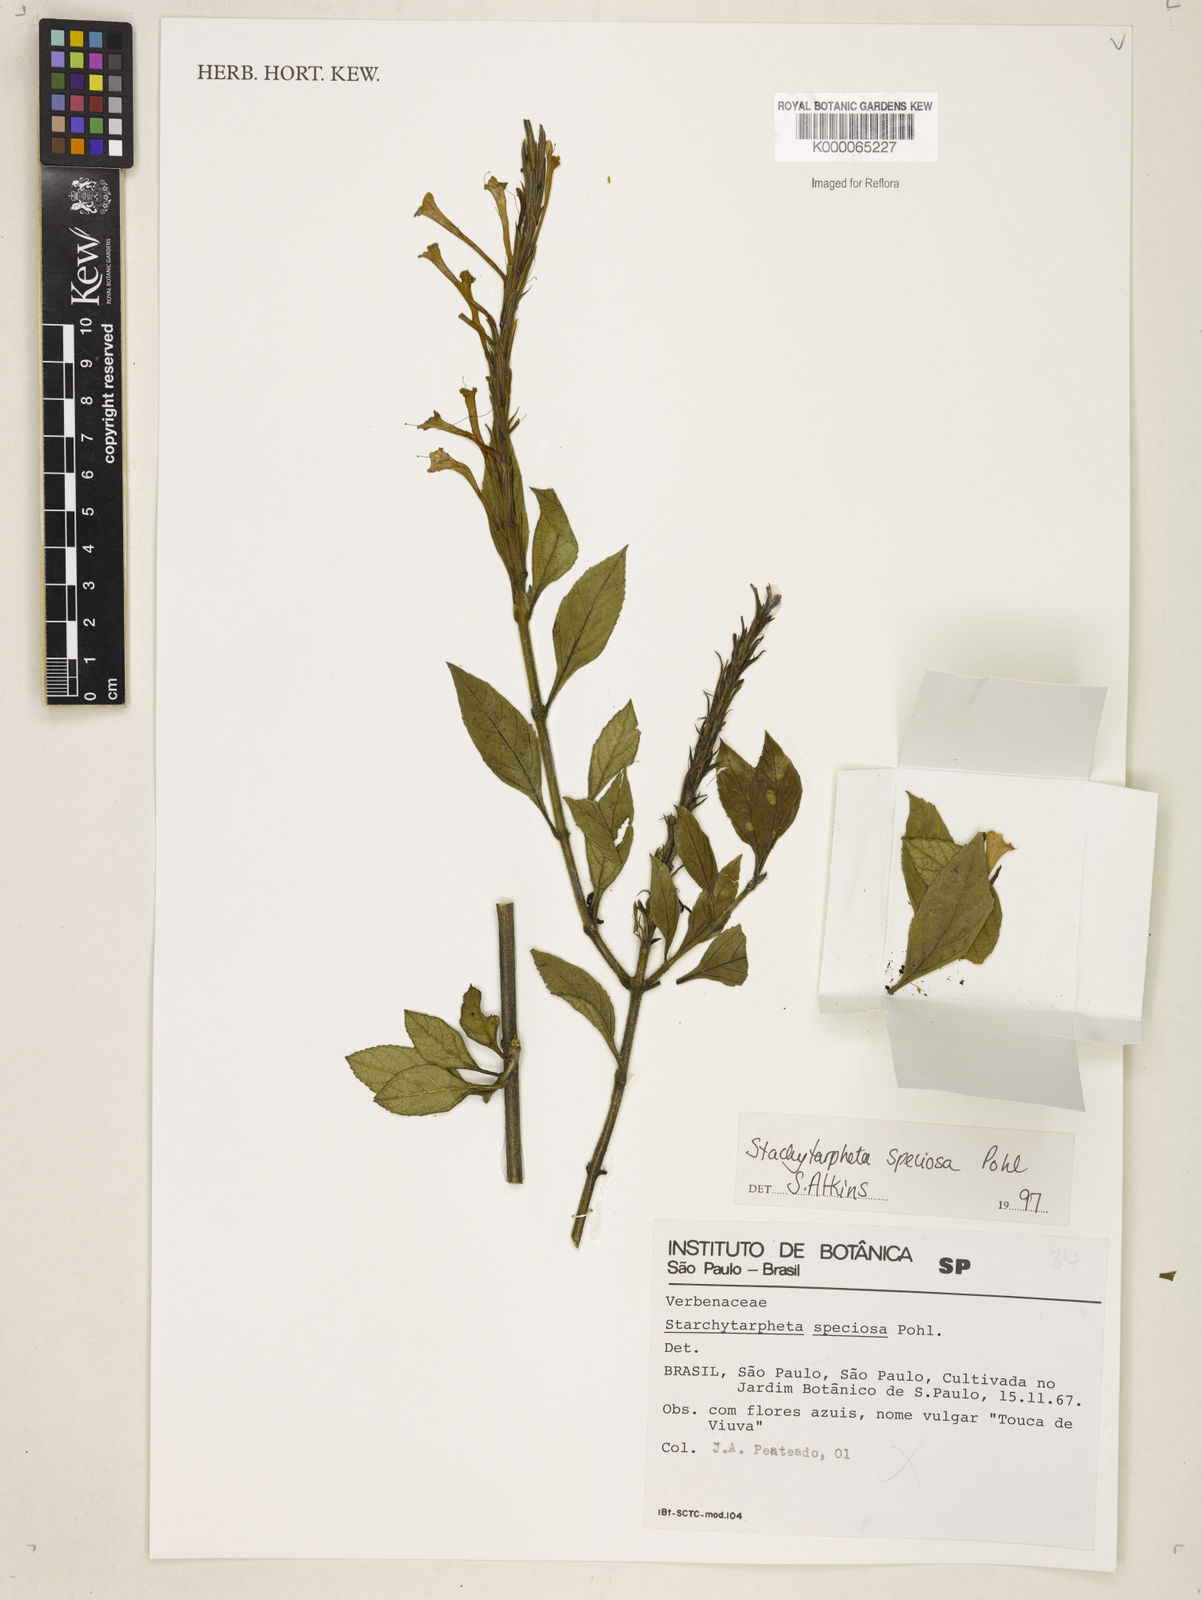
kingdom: Plantae
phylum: Tracheophyta
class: Magnoliopsida
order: Lamiales
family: Verbenaceae
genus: Stachytarpheta
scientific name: Stachytarpheta
